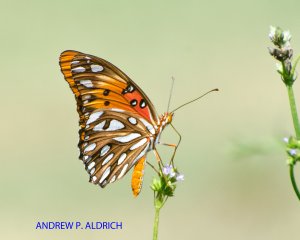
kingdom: Animalia
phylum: Arthropoda
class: Insecta
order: Lepidoptera
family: Nymphalidae
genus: Dione
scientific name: Dione vanillae
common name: Gulf Fritillary
